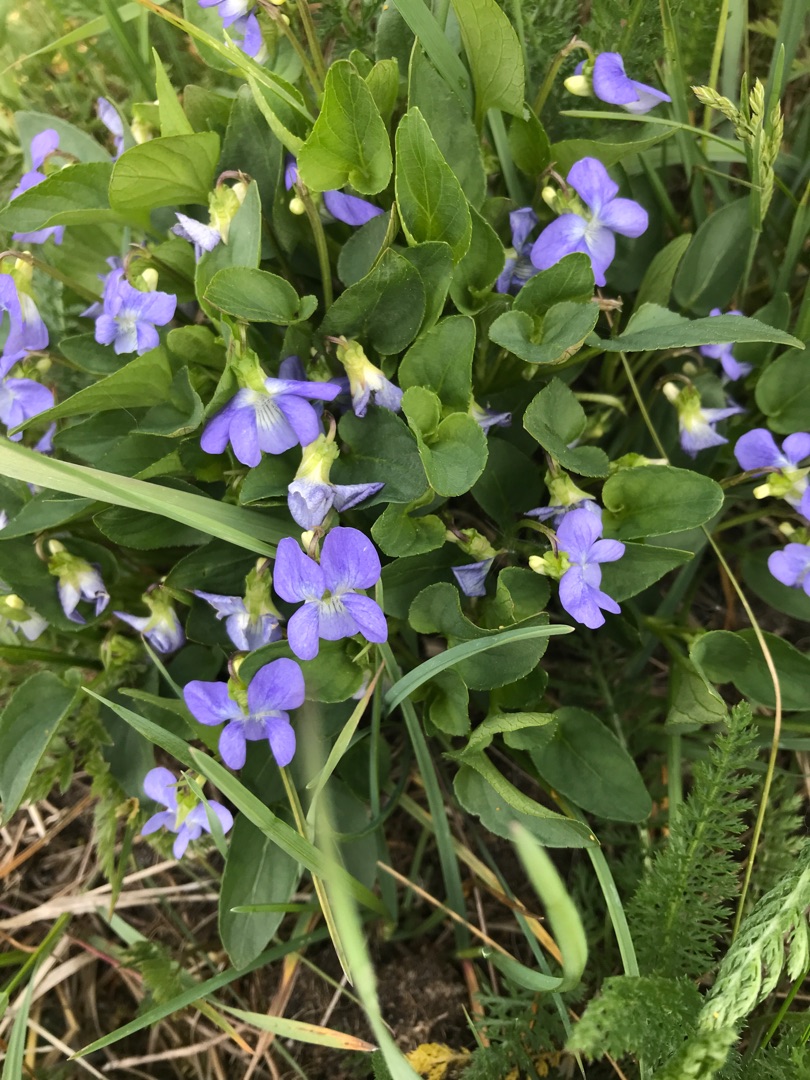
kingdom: Plantae
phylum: Tracheophyta
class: Magnoliopsida
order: Malpighiales
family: Violaceae
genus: Viola
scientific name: Viola canina
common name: Hunde-viol
